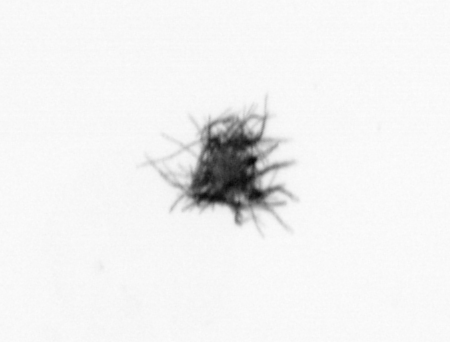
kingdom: Bacteria
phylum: Cyanobacteria
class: Cyanobacteriia
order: Cyanobacteriales
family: Microcoleaceae
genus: Trichodesmium
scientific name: Trichodesmium
